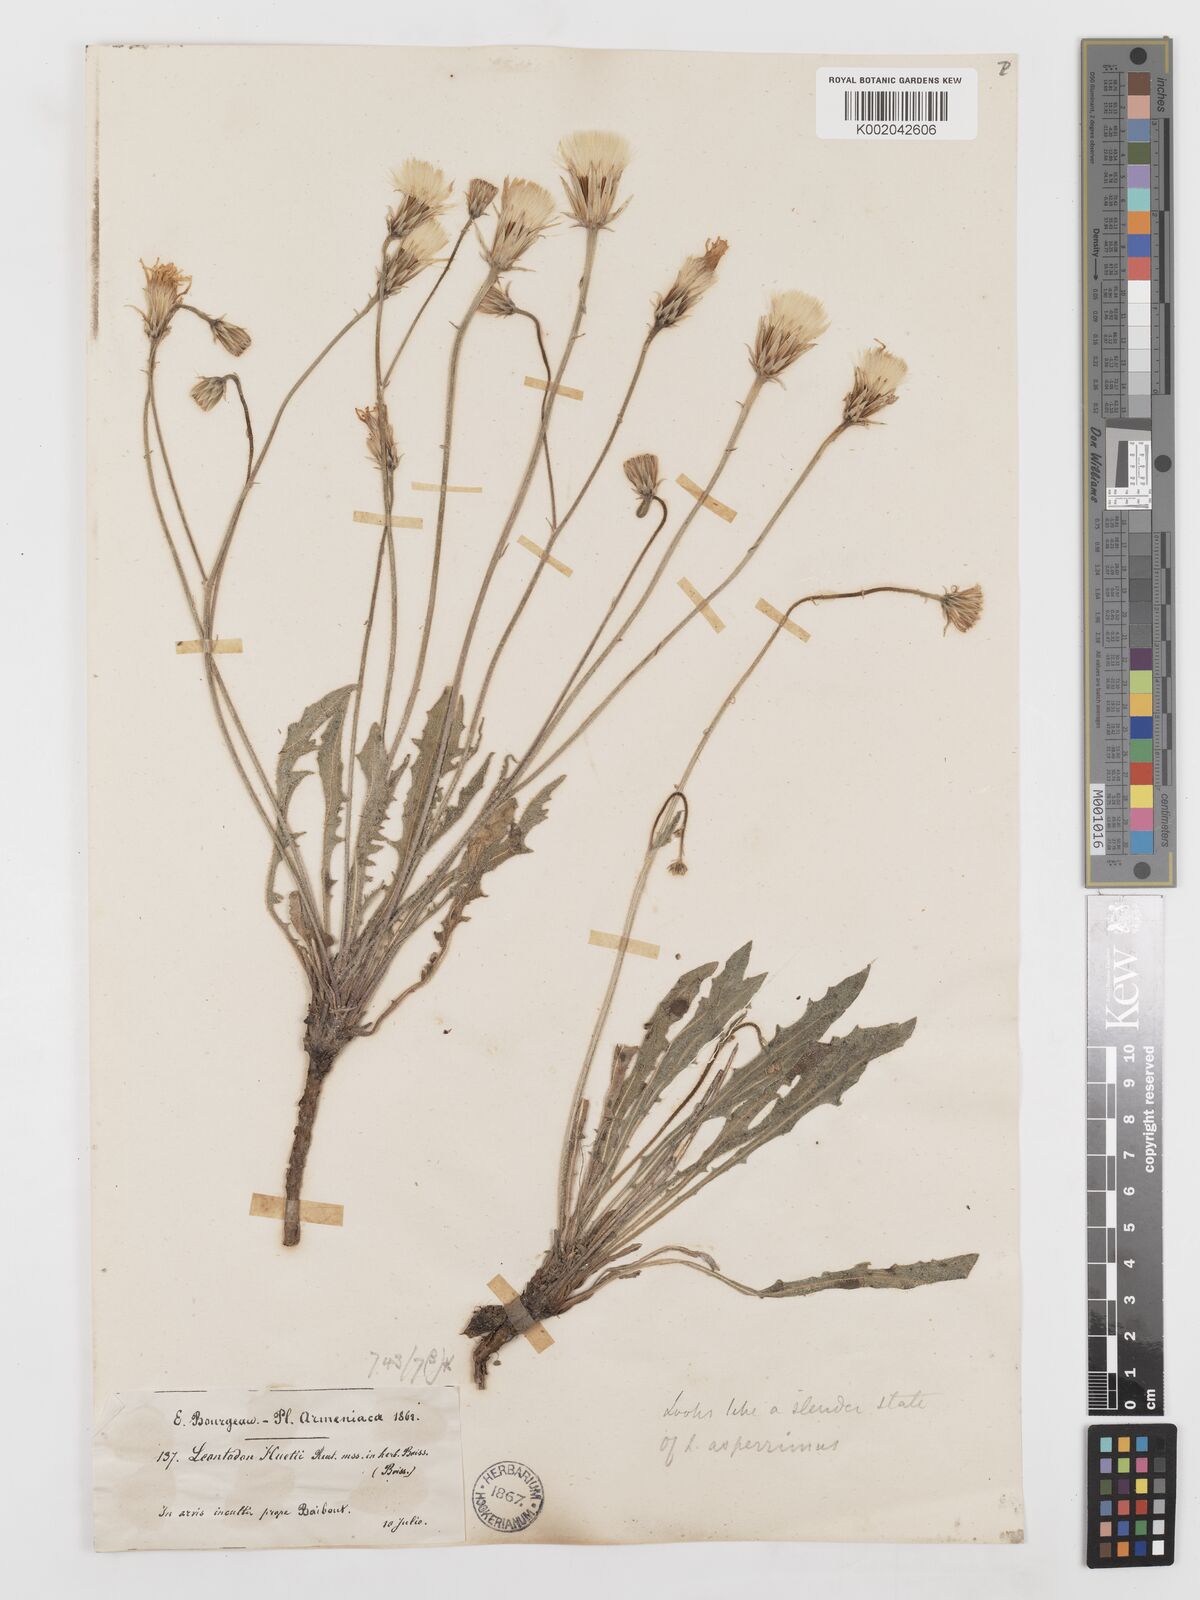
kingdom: Plantae
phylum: Tracheophyta
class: Magnoliopsida
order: Asterales
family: Asteraceae
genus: Leontodon
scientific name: Leontodon
